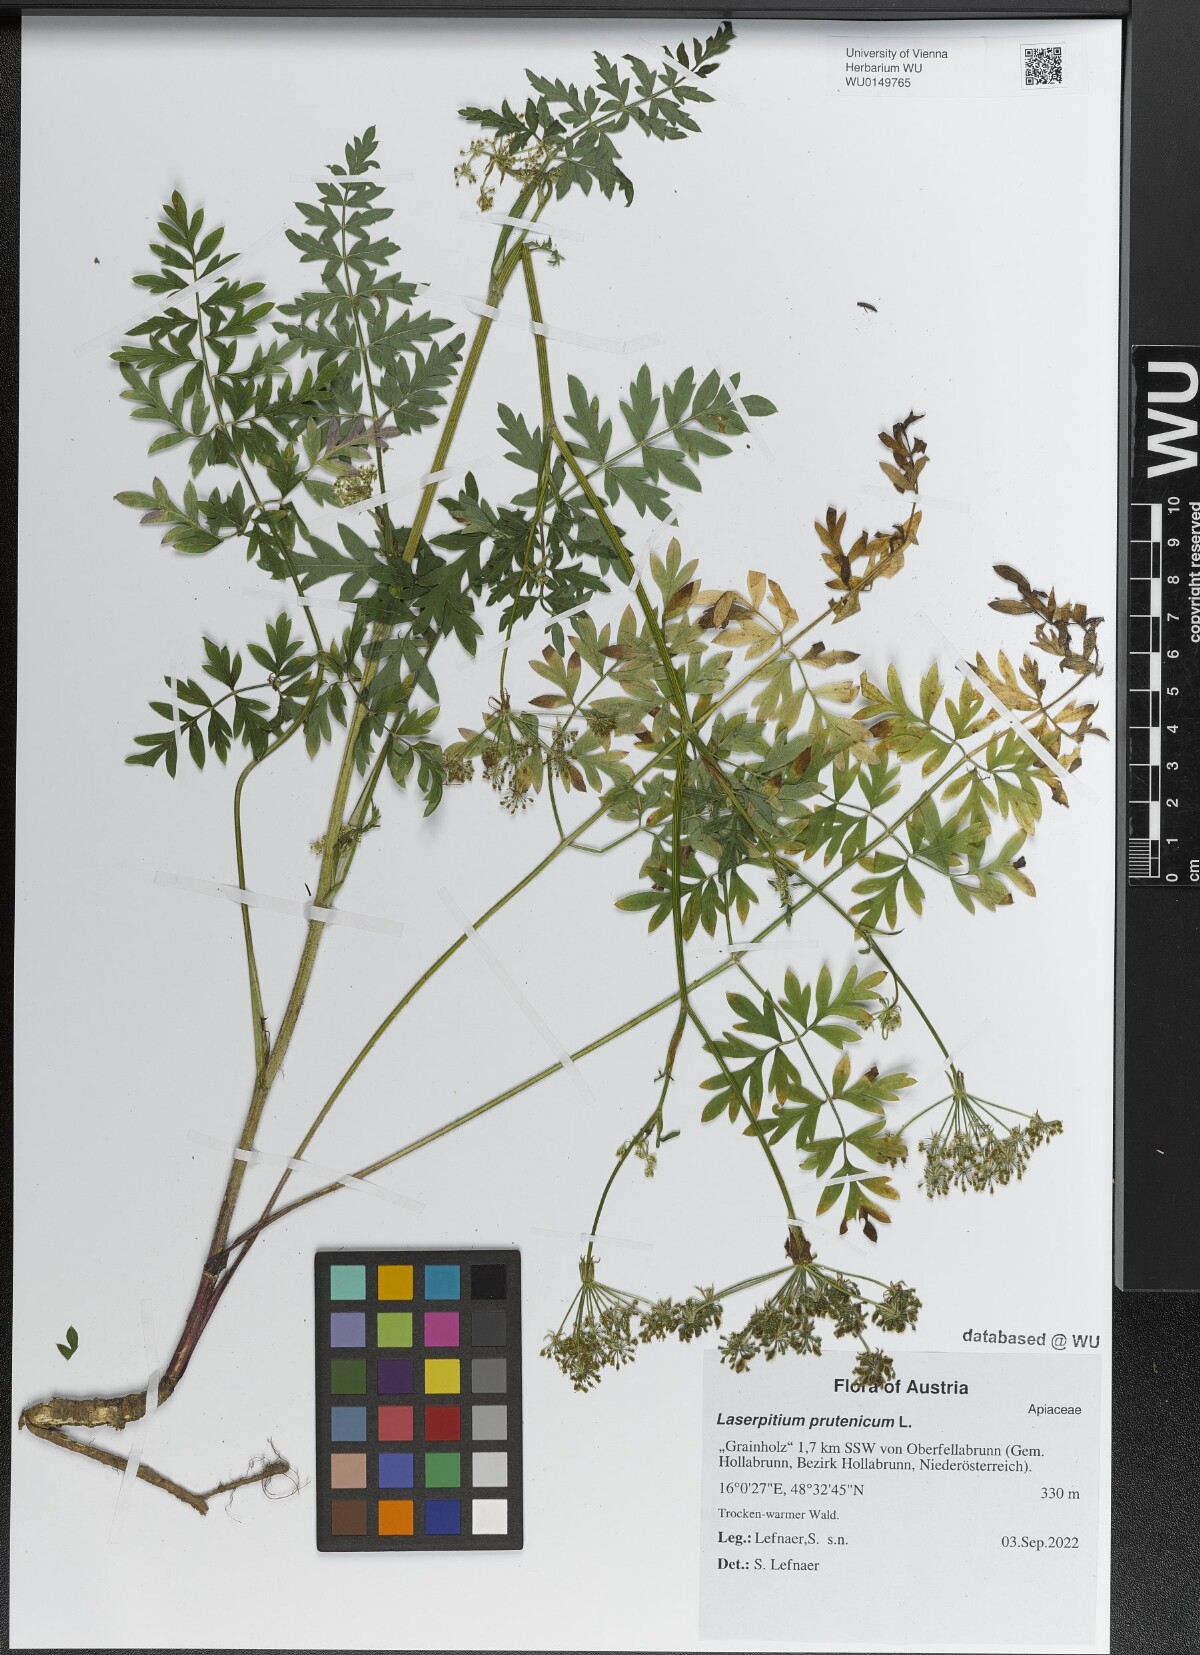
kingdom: Plantae
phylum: Tracheophyta
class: Magnoliopsida
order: Apiales
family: Apiaceae
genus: Silphiodaucus
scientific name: Silphiodaucus prutenicus
